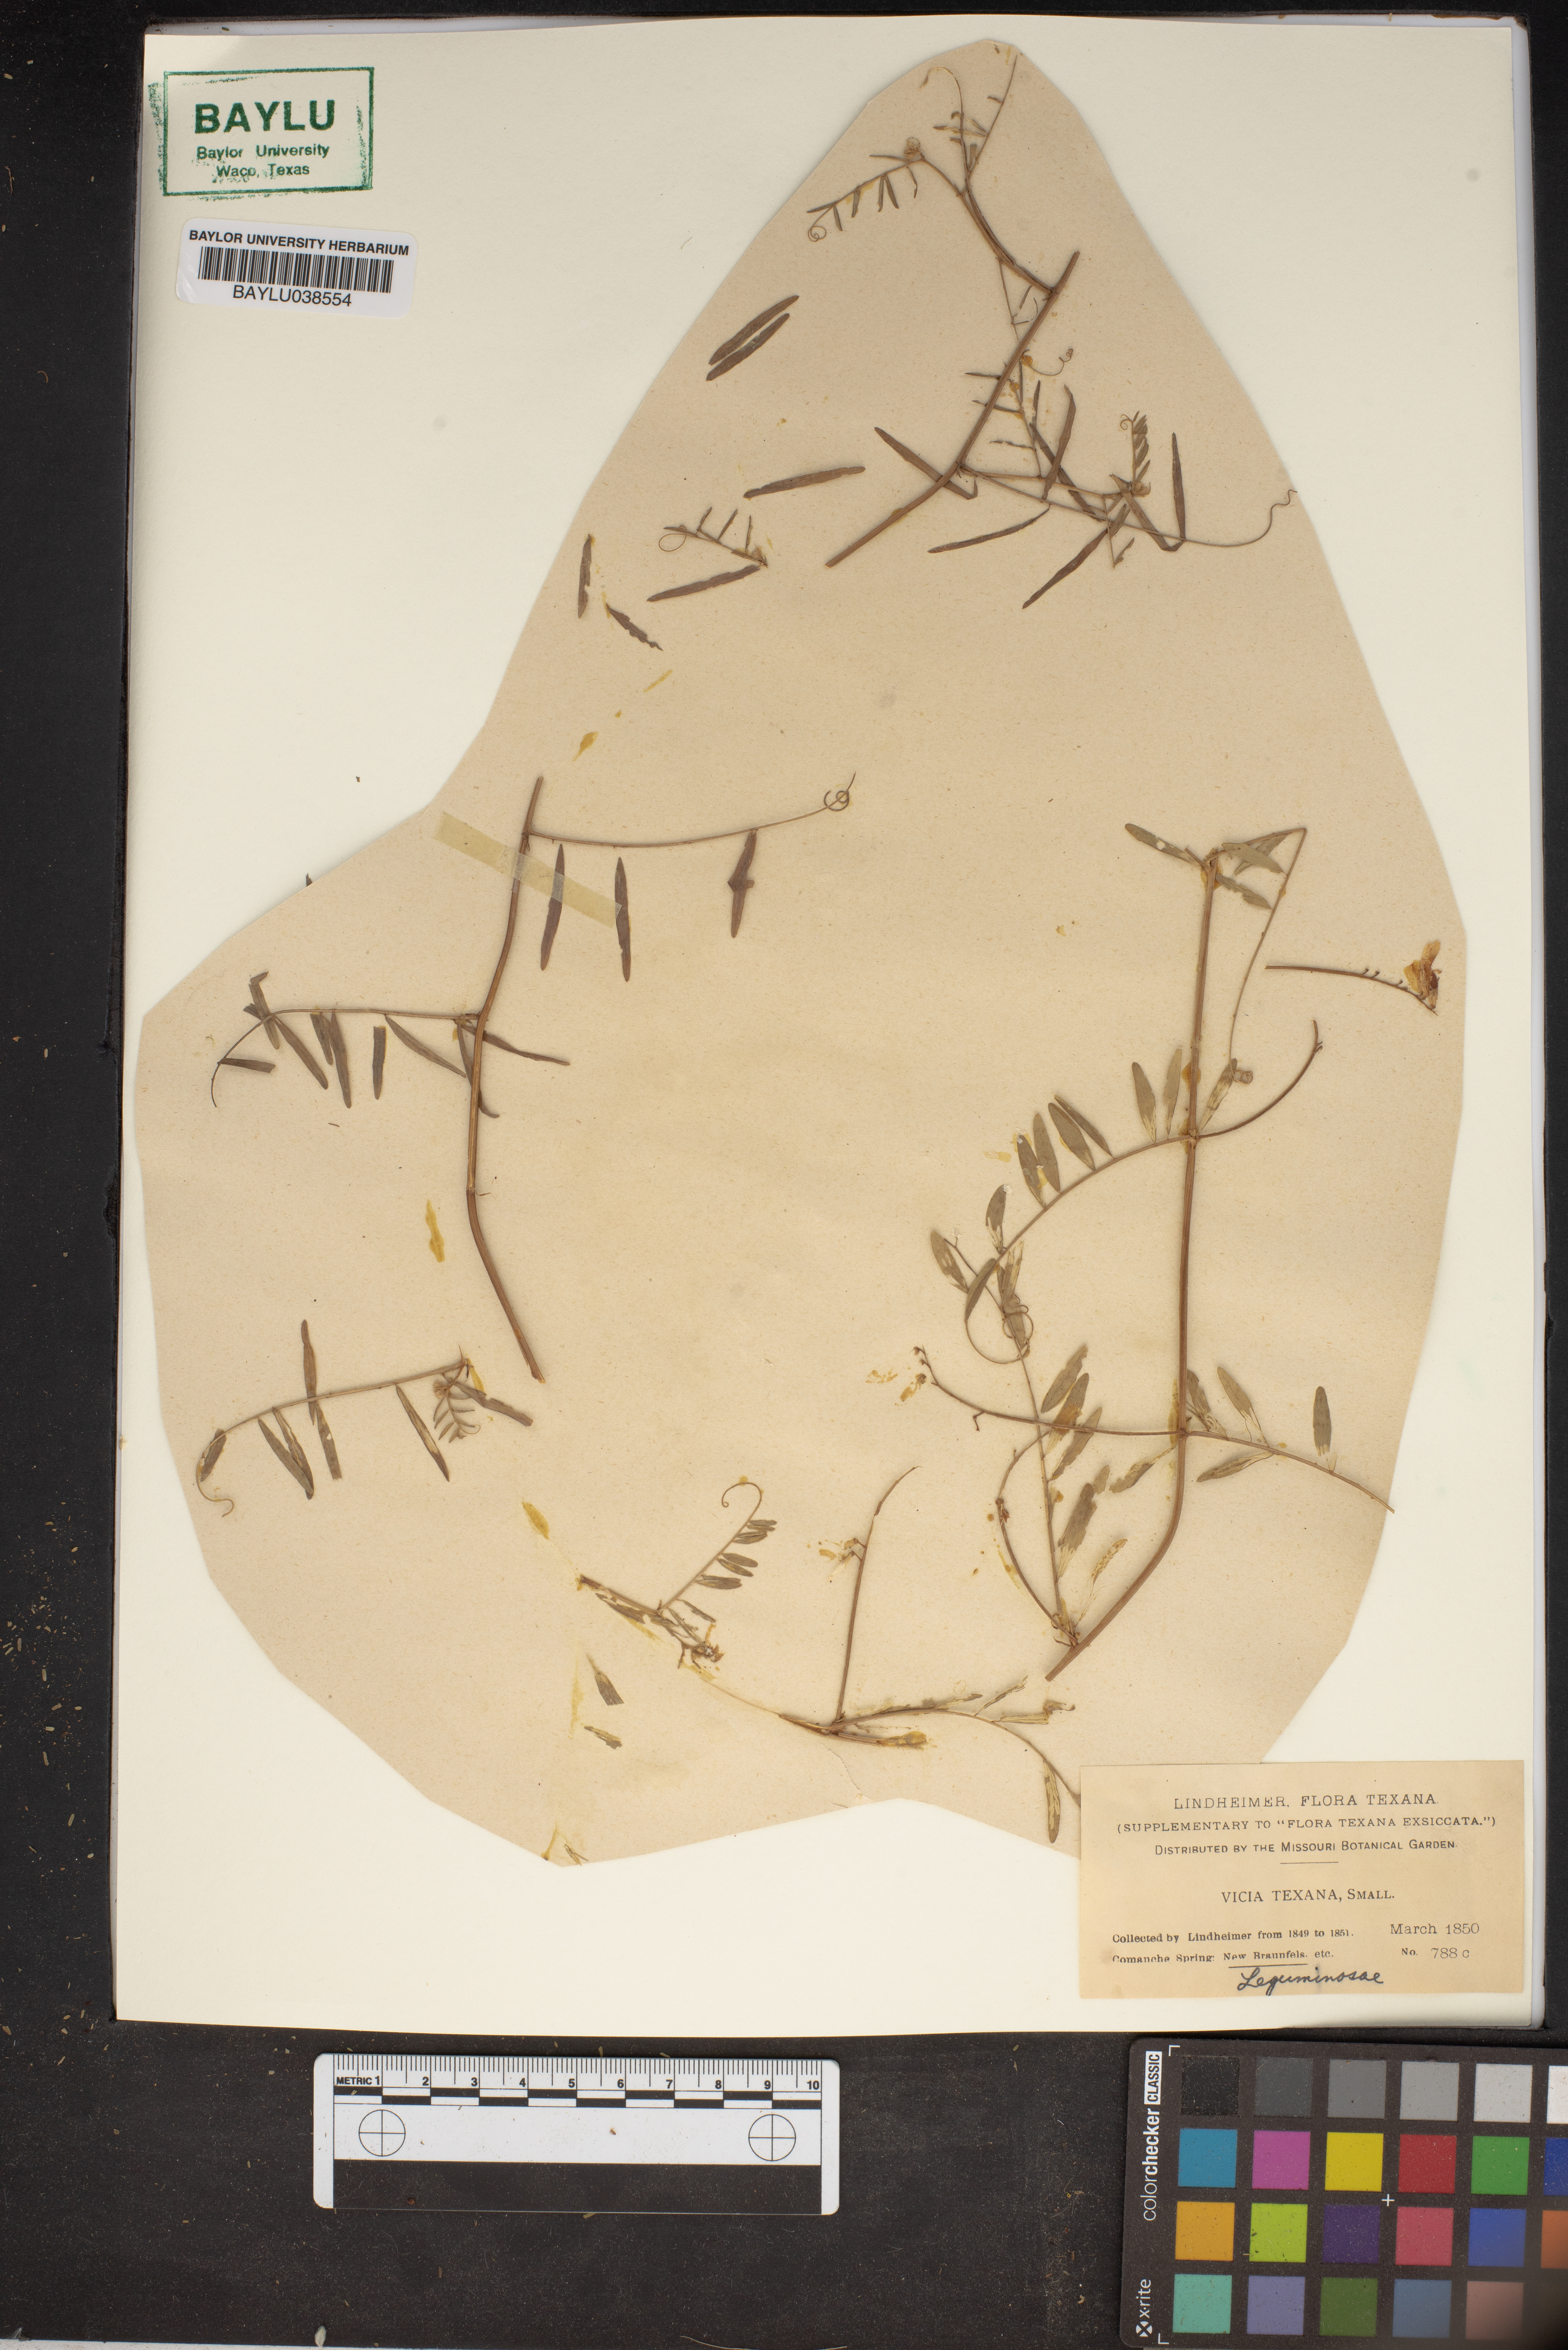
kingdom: Plantae
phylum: Tracheophyta
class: Magnoliopsida
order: Fabales
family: Fabaceae
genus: Vicia
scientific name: Vicia ludoviciana
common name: Louisiana vetch
